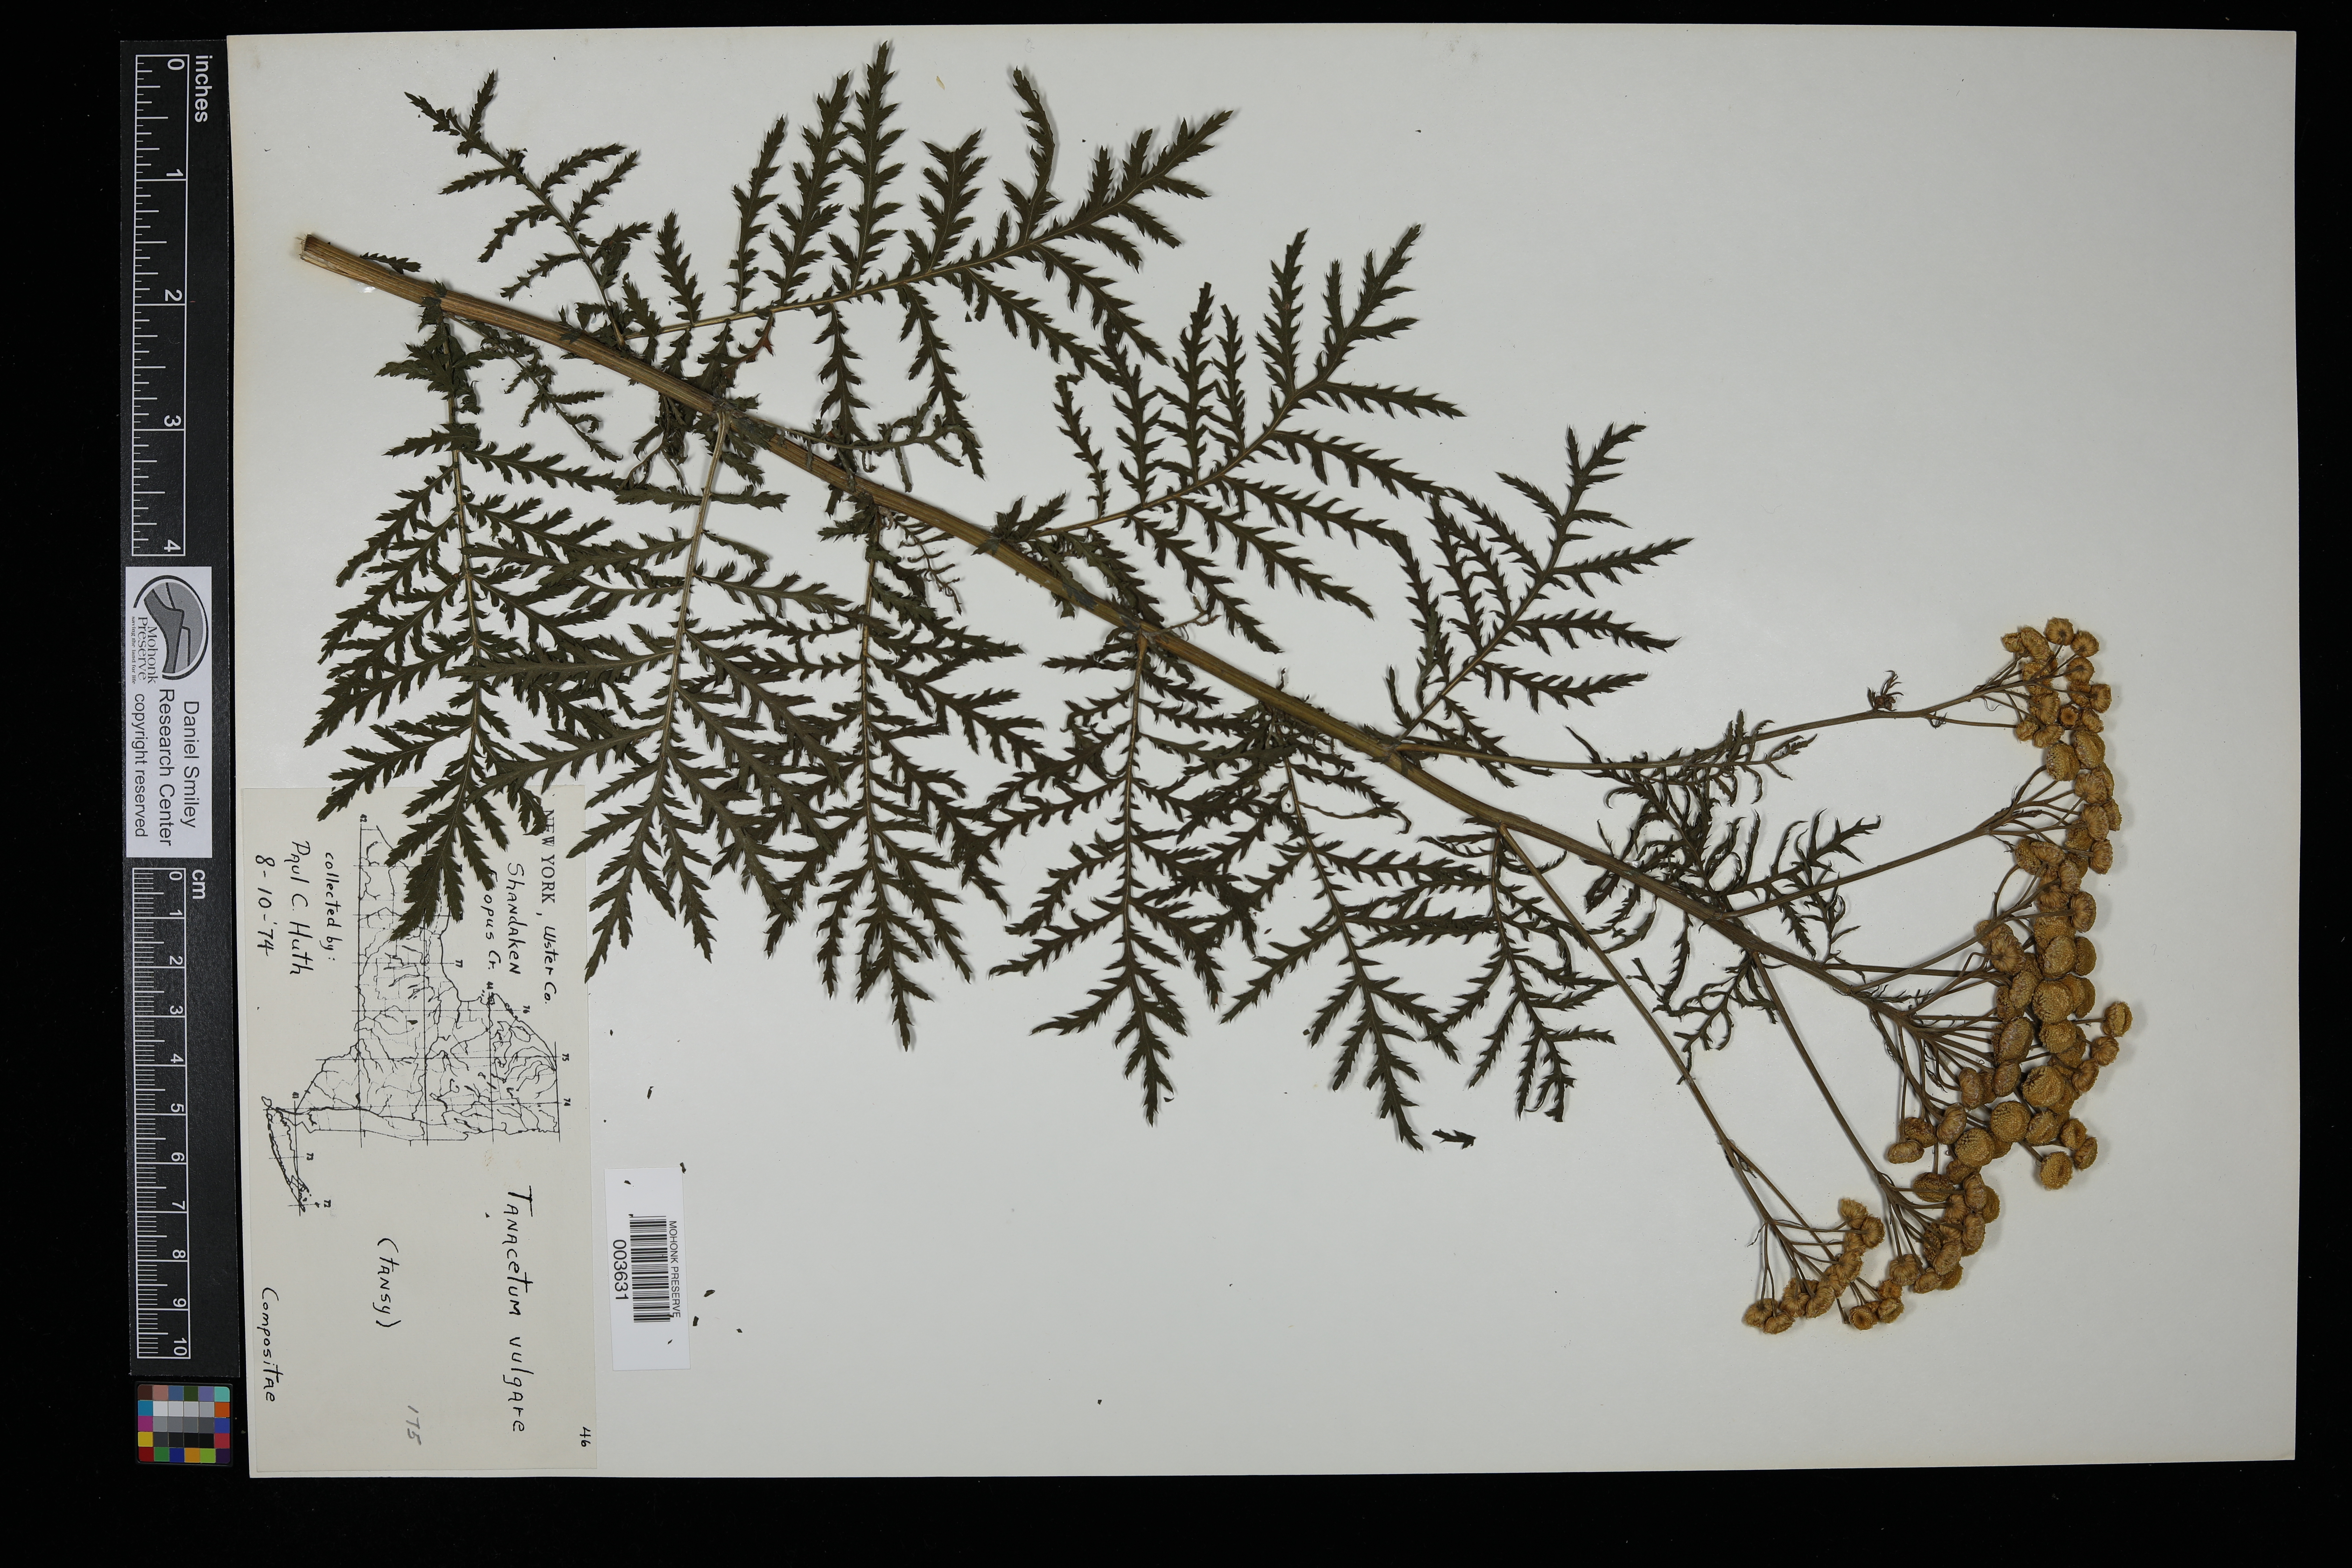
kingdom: Plantae
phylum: Tracheophyta
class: Magnoliopsida
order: Asterales
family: Asteraceae
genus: Tanacetum
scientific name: Tanacetum vulgare
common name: Common tansy
